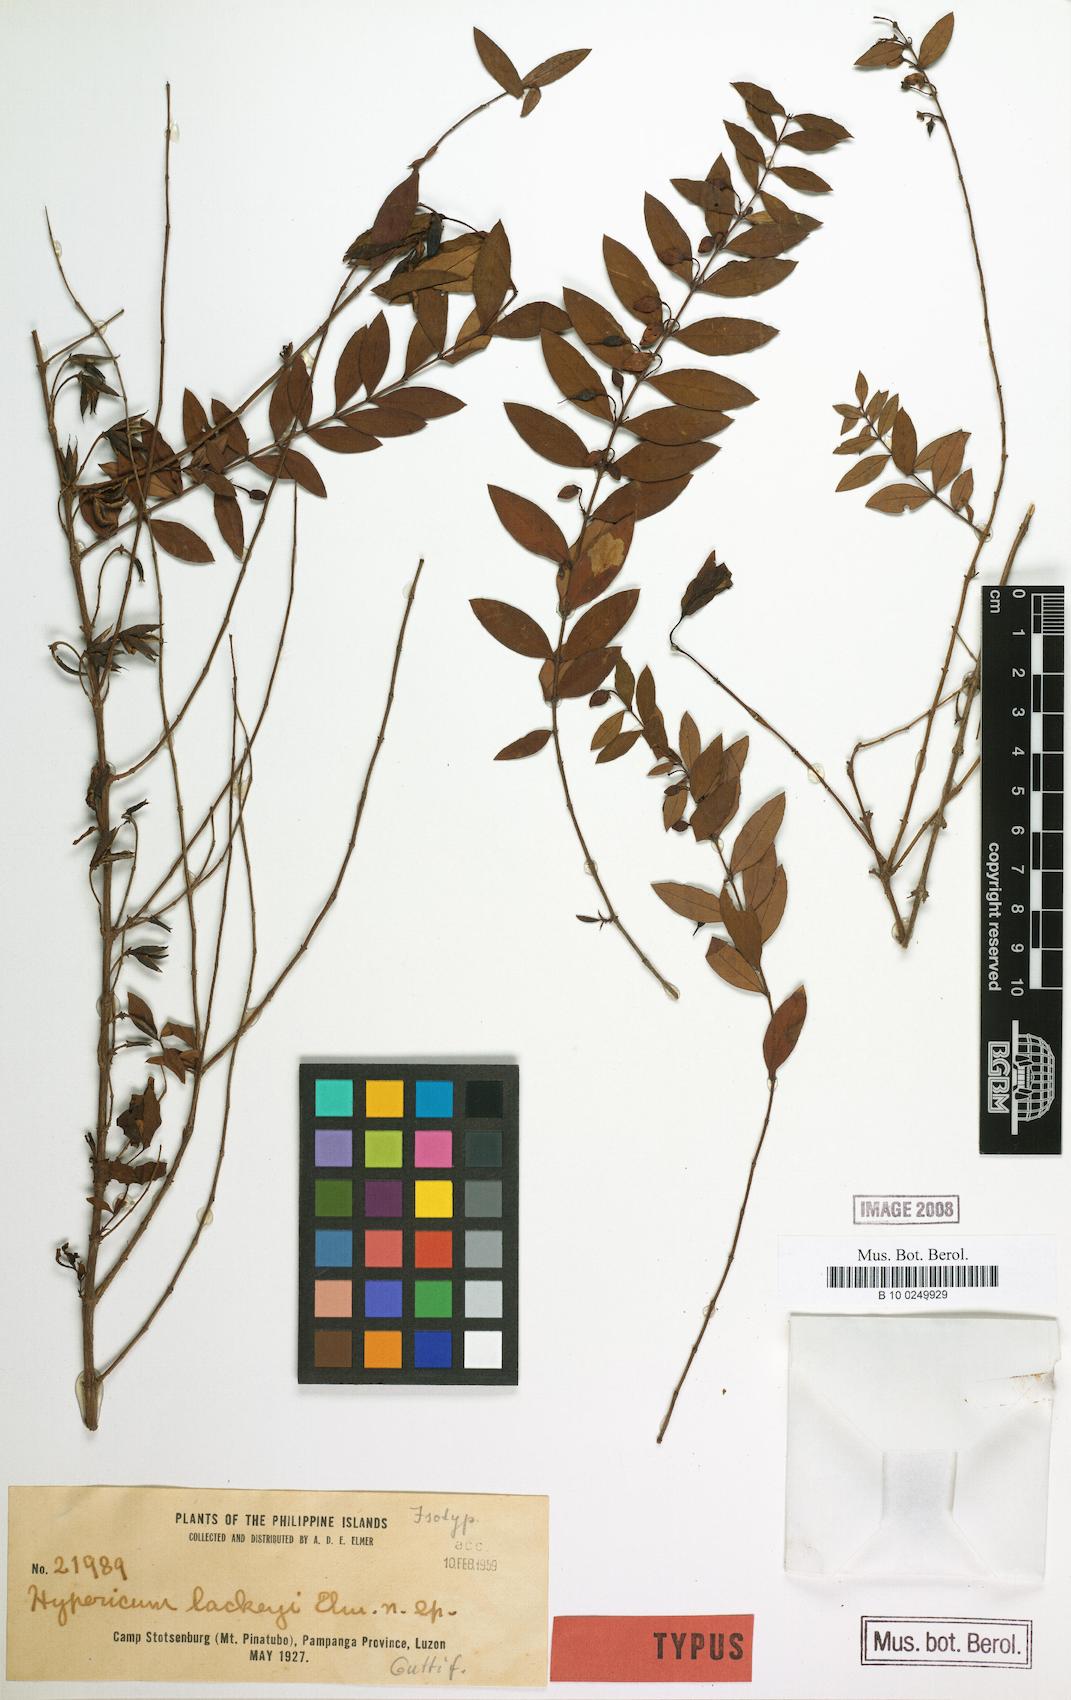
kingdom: Plantae
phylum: Tracheophyta
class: Magnoliopsida
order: Malpighiales
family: Hypericaceae
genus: Hypericum
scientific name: Hypericum geminiflorum
